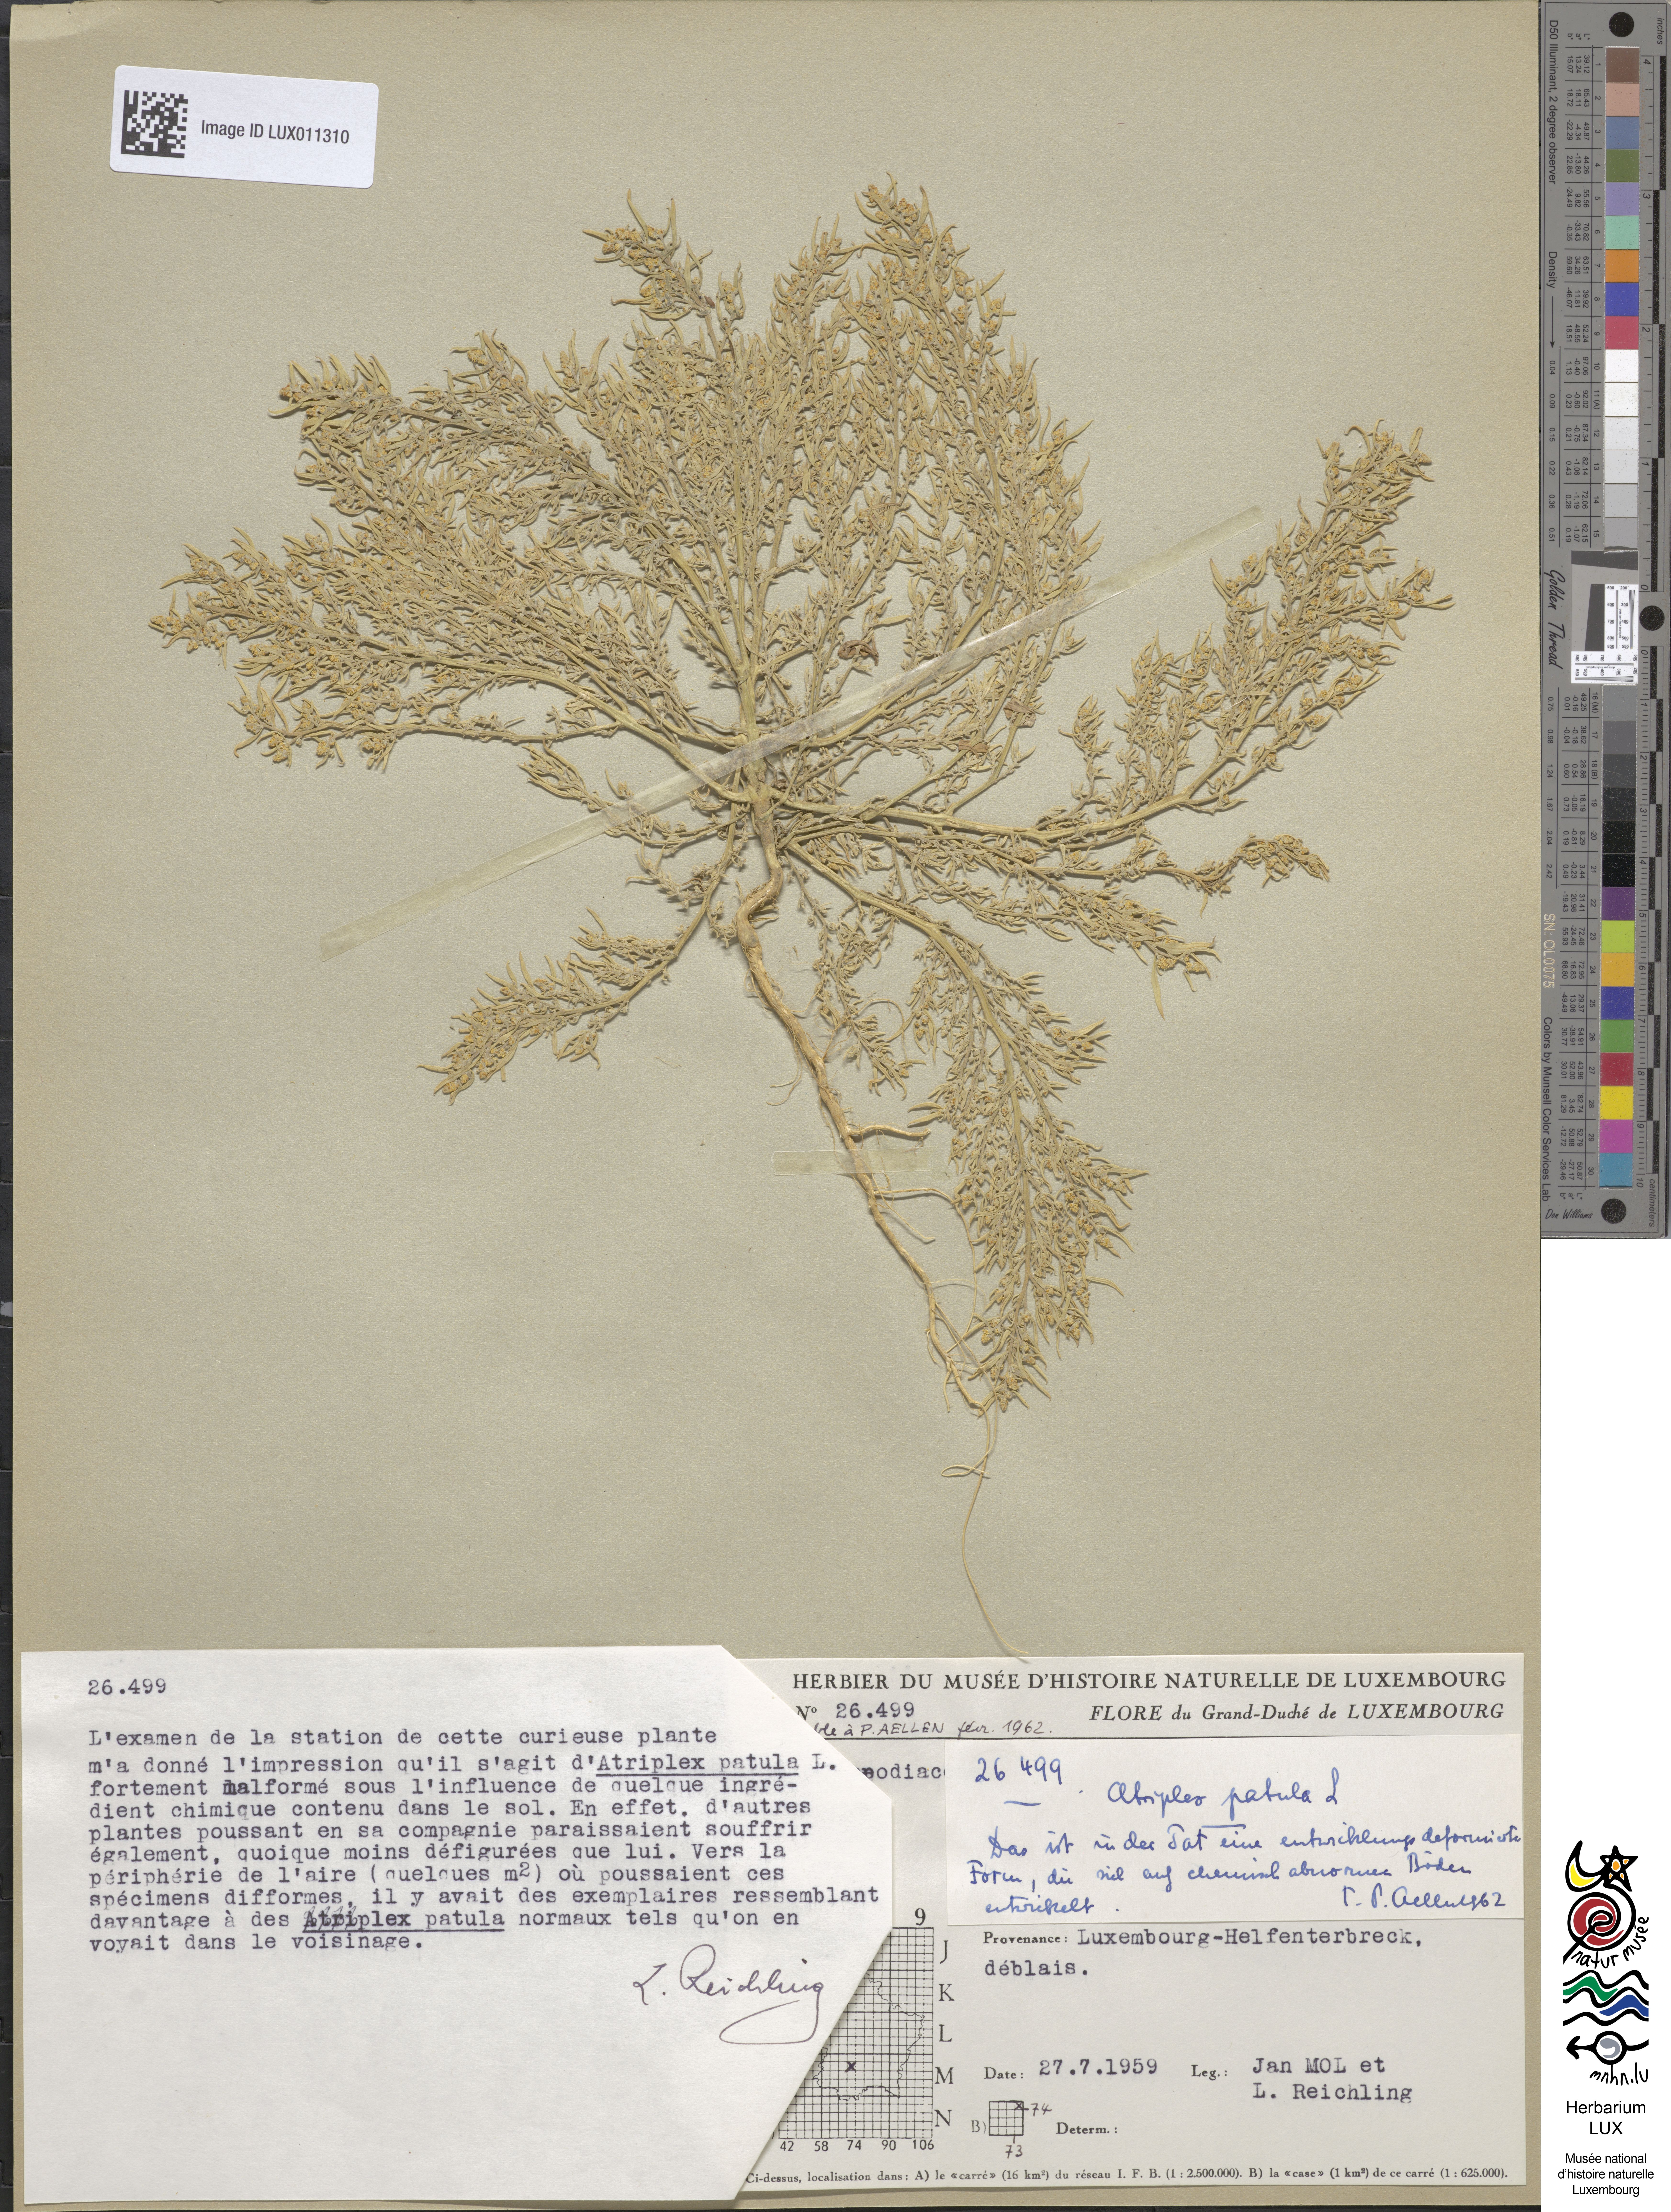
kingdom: Plantae
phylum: Tracheophyta
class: Magnoliopsida
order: Caryophyllales
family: Amaranthaceae
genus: Atriplex
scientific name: Atriplex patula
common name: Common orache
